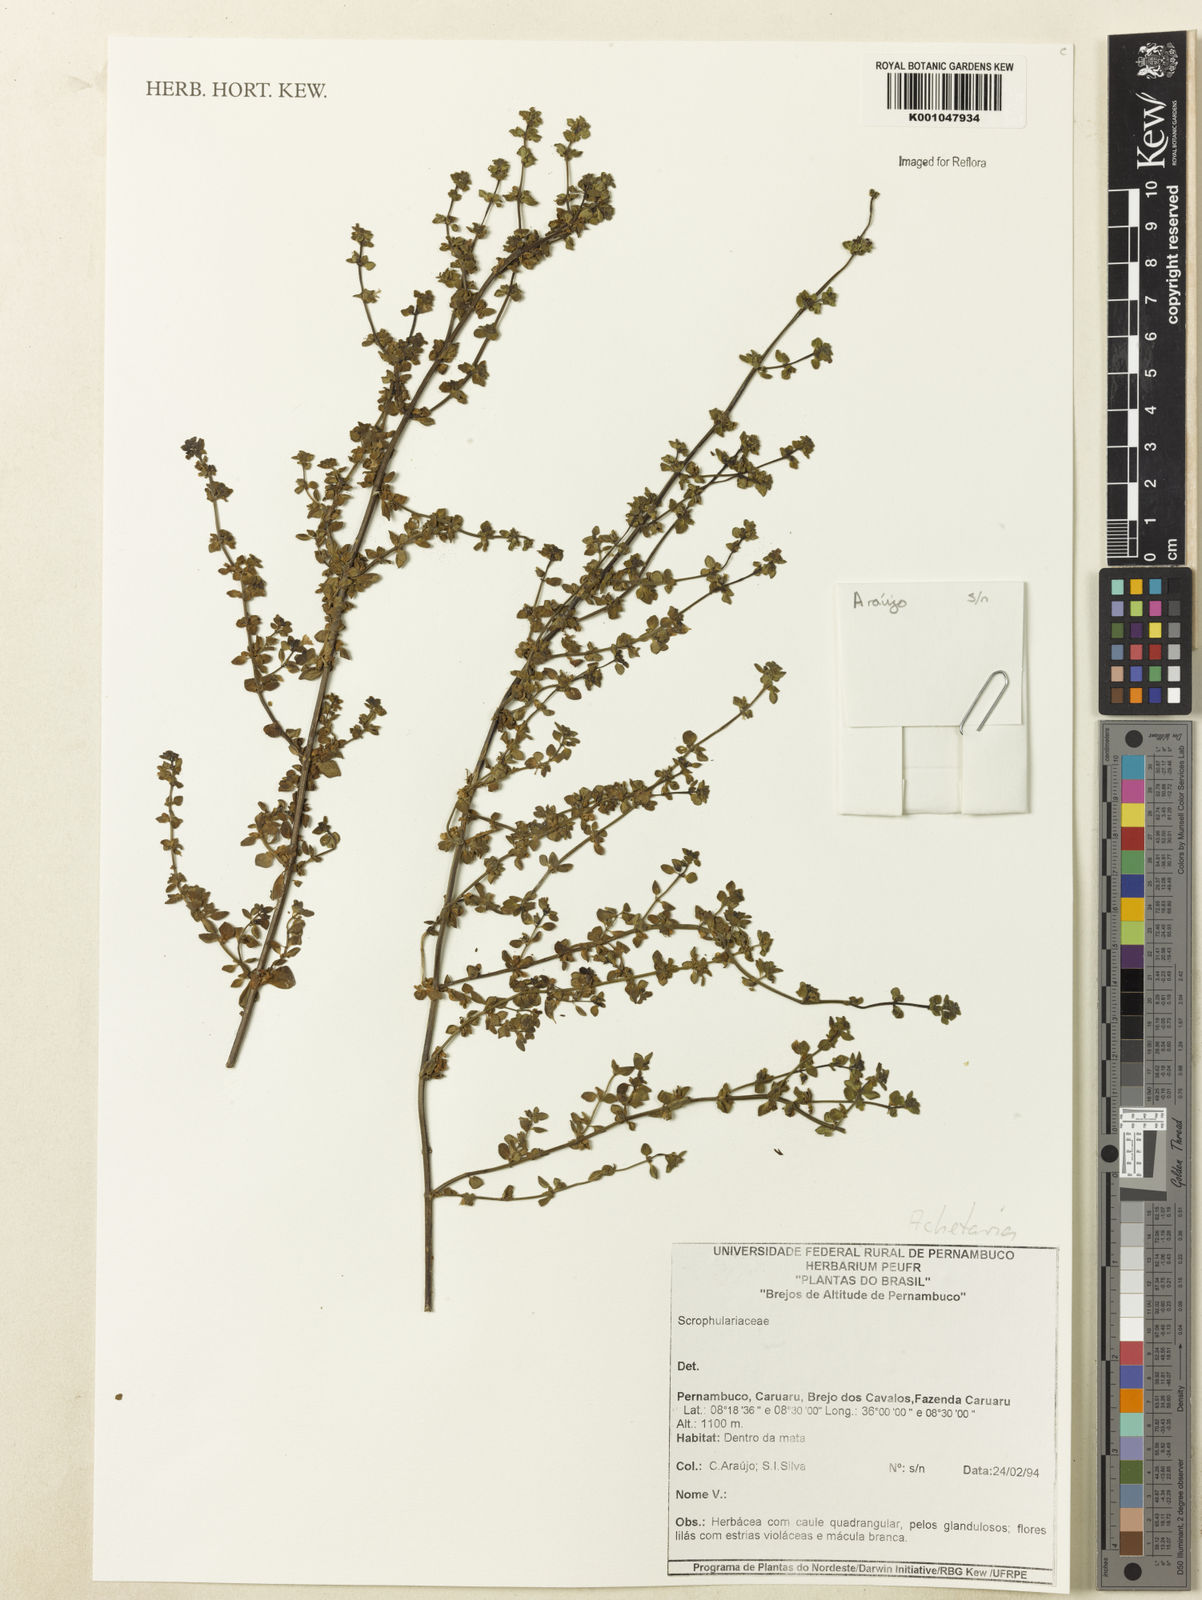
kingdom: Plantae
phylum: Tracheophyta
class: Magnoliopsida
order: Lamiales
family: Plantaginaceae
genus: Matourea
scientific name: Matourea scutellarioides
